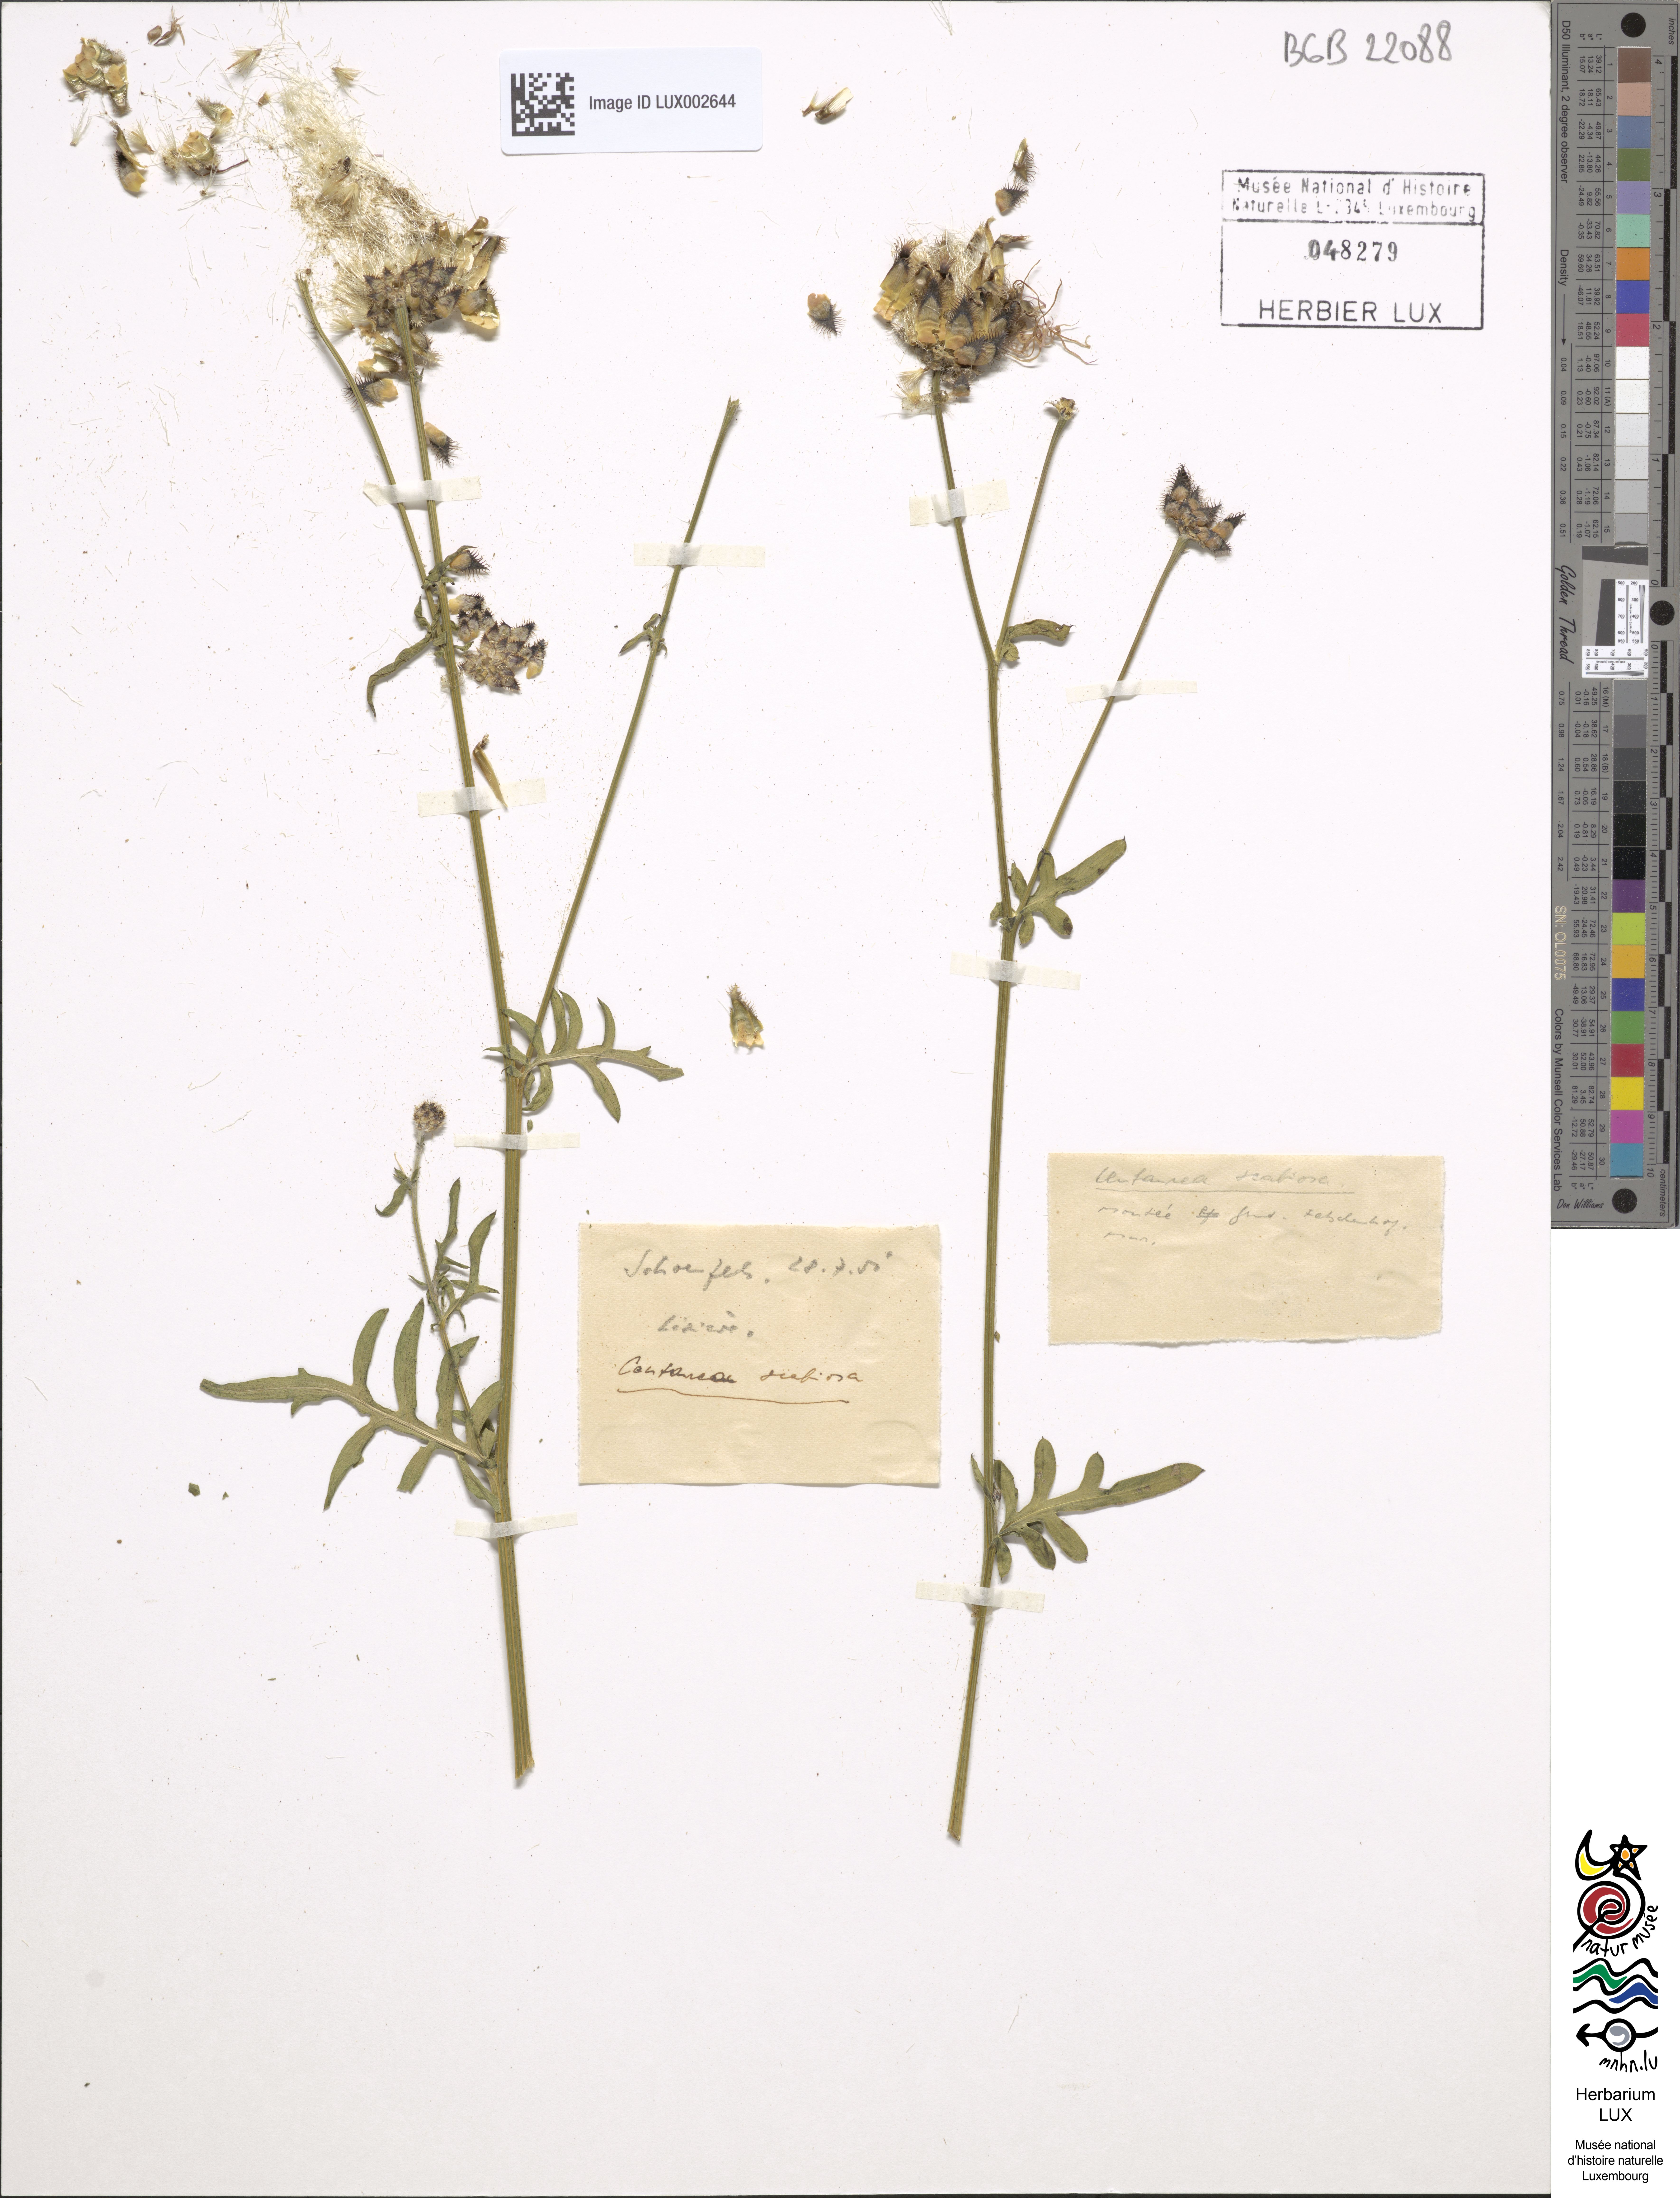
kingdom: Plantae
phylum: Tracheophyta
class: Magnoliopsida
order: Asterales
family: Asteraceae
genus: Centaurea
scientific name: Centaurea scabiosa
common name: Greater knapweed
